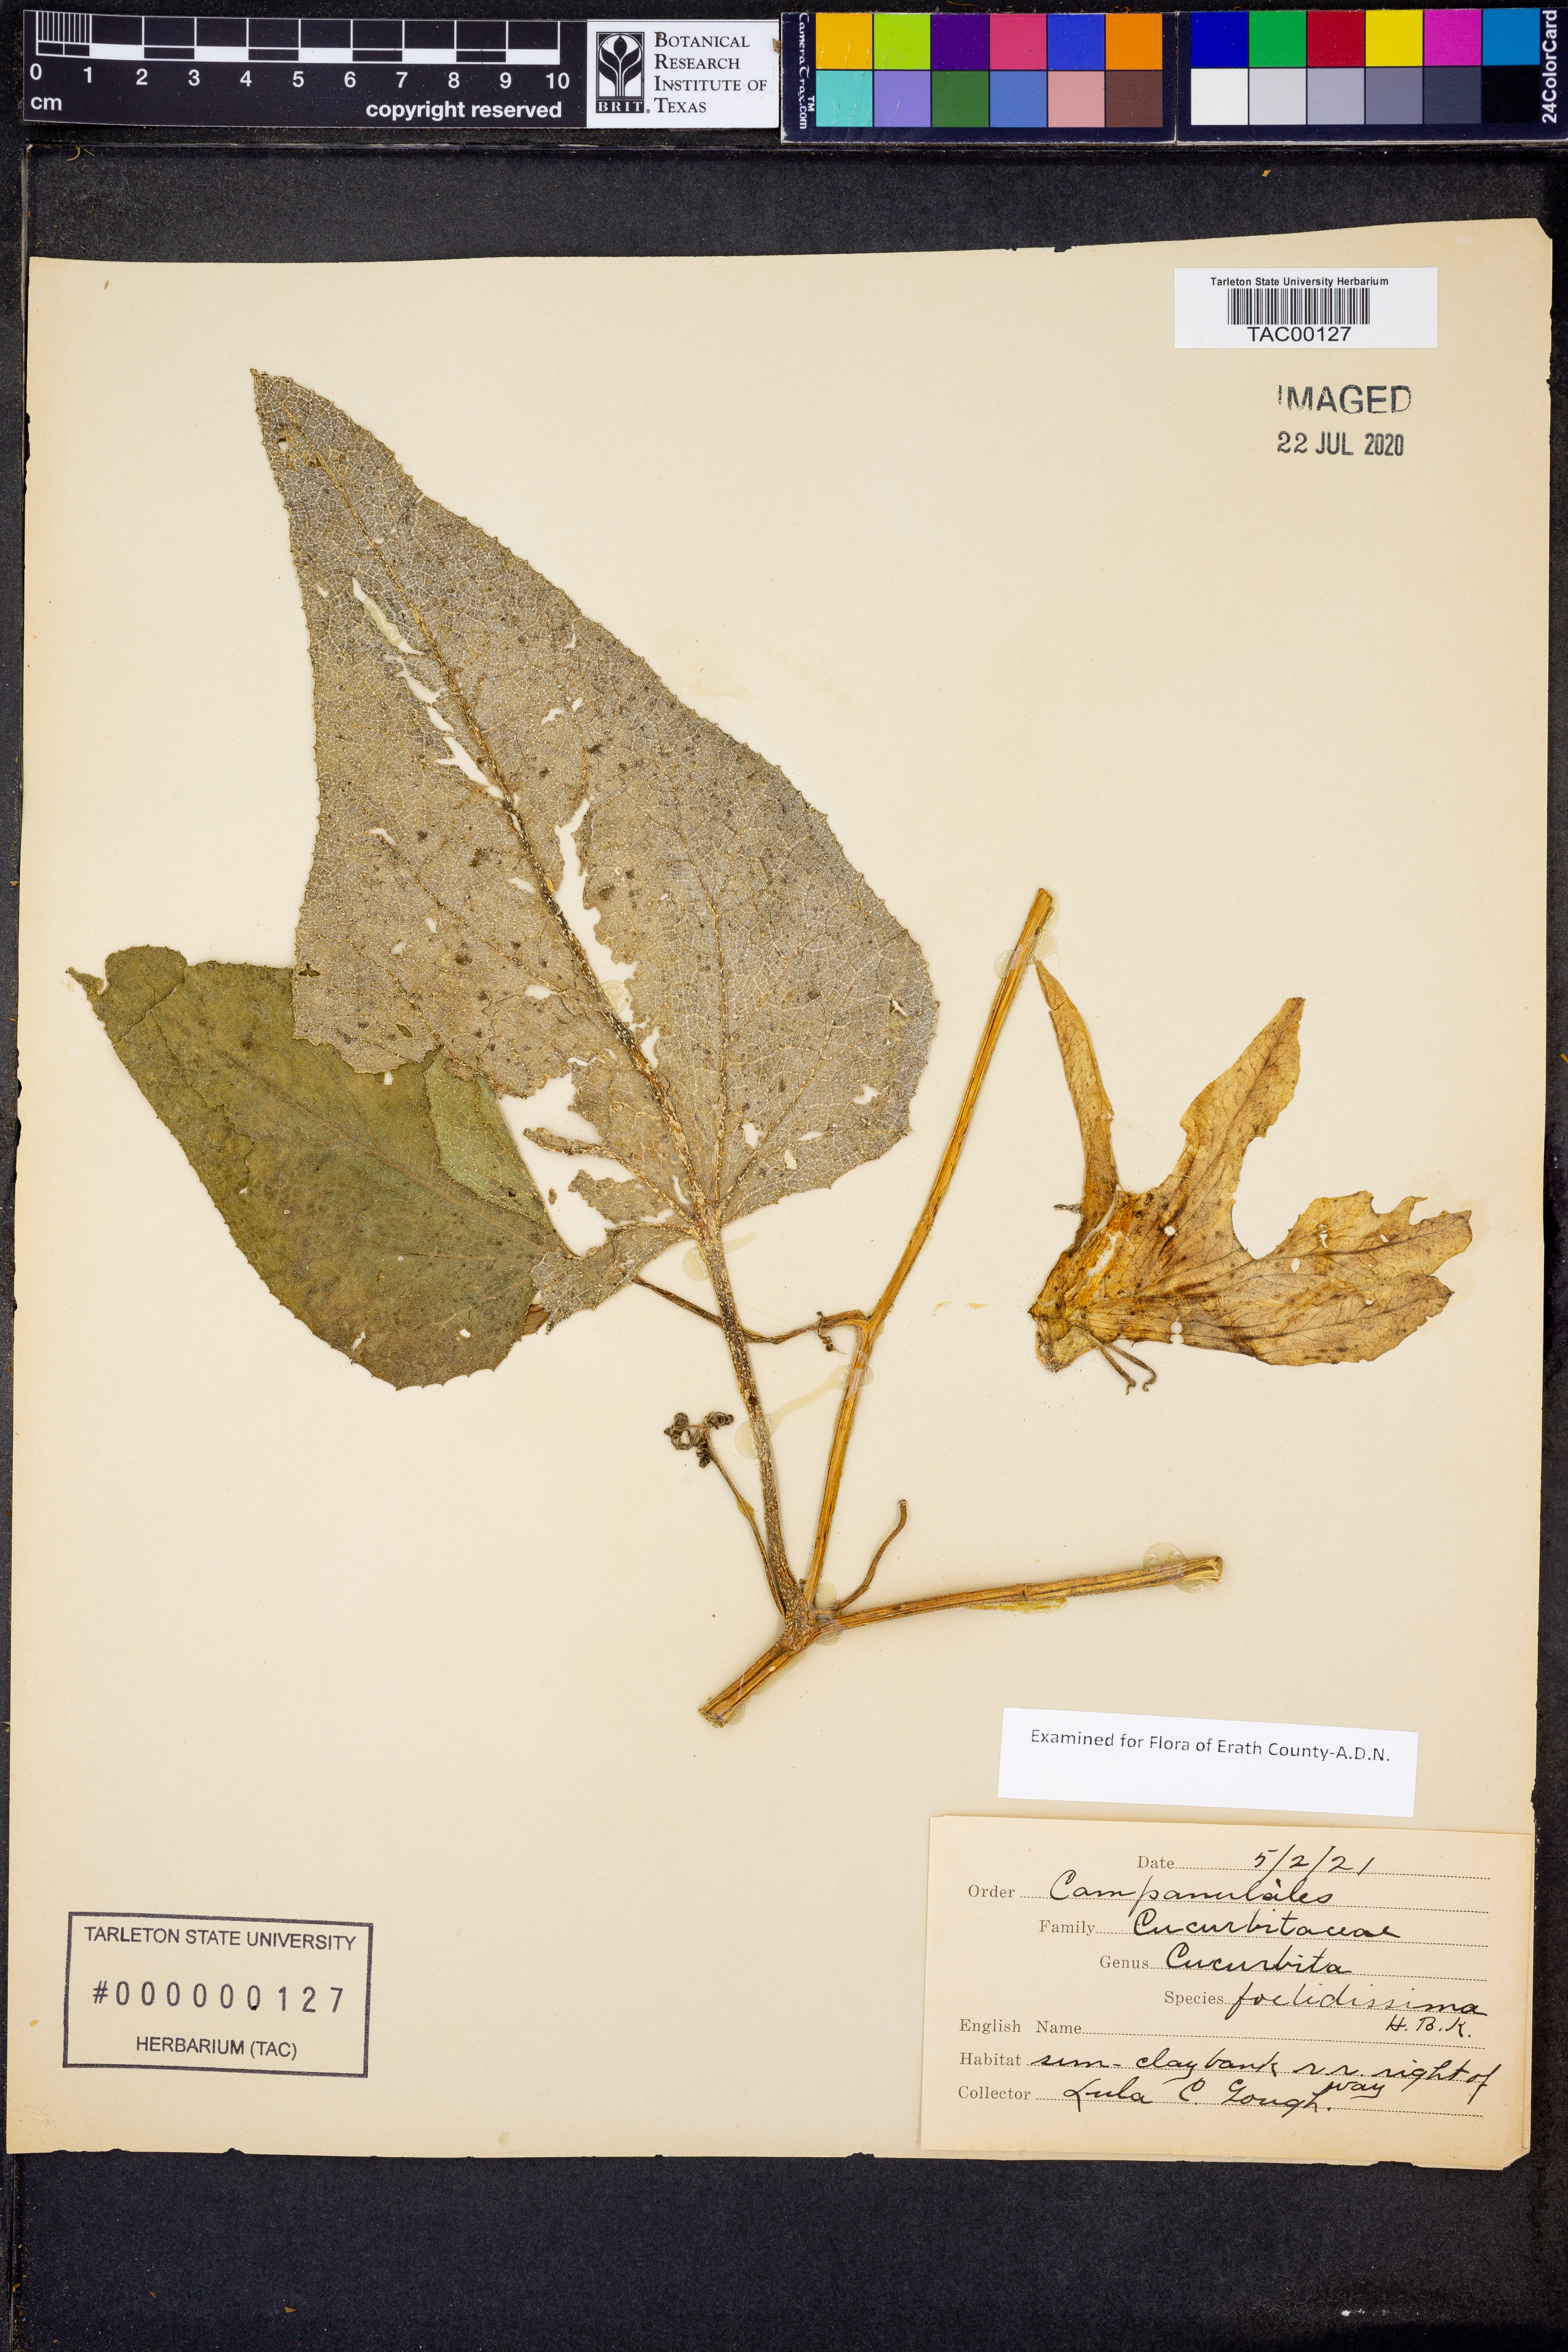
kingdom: Plantae
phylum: Tracheophyta
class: Magnoliopsida
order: Cucurbitales
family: Cucurbitaceae
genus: Cucurbita
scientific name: Cucurbita foetidissima
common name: Buffalo gourd
